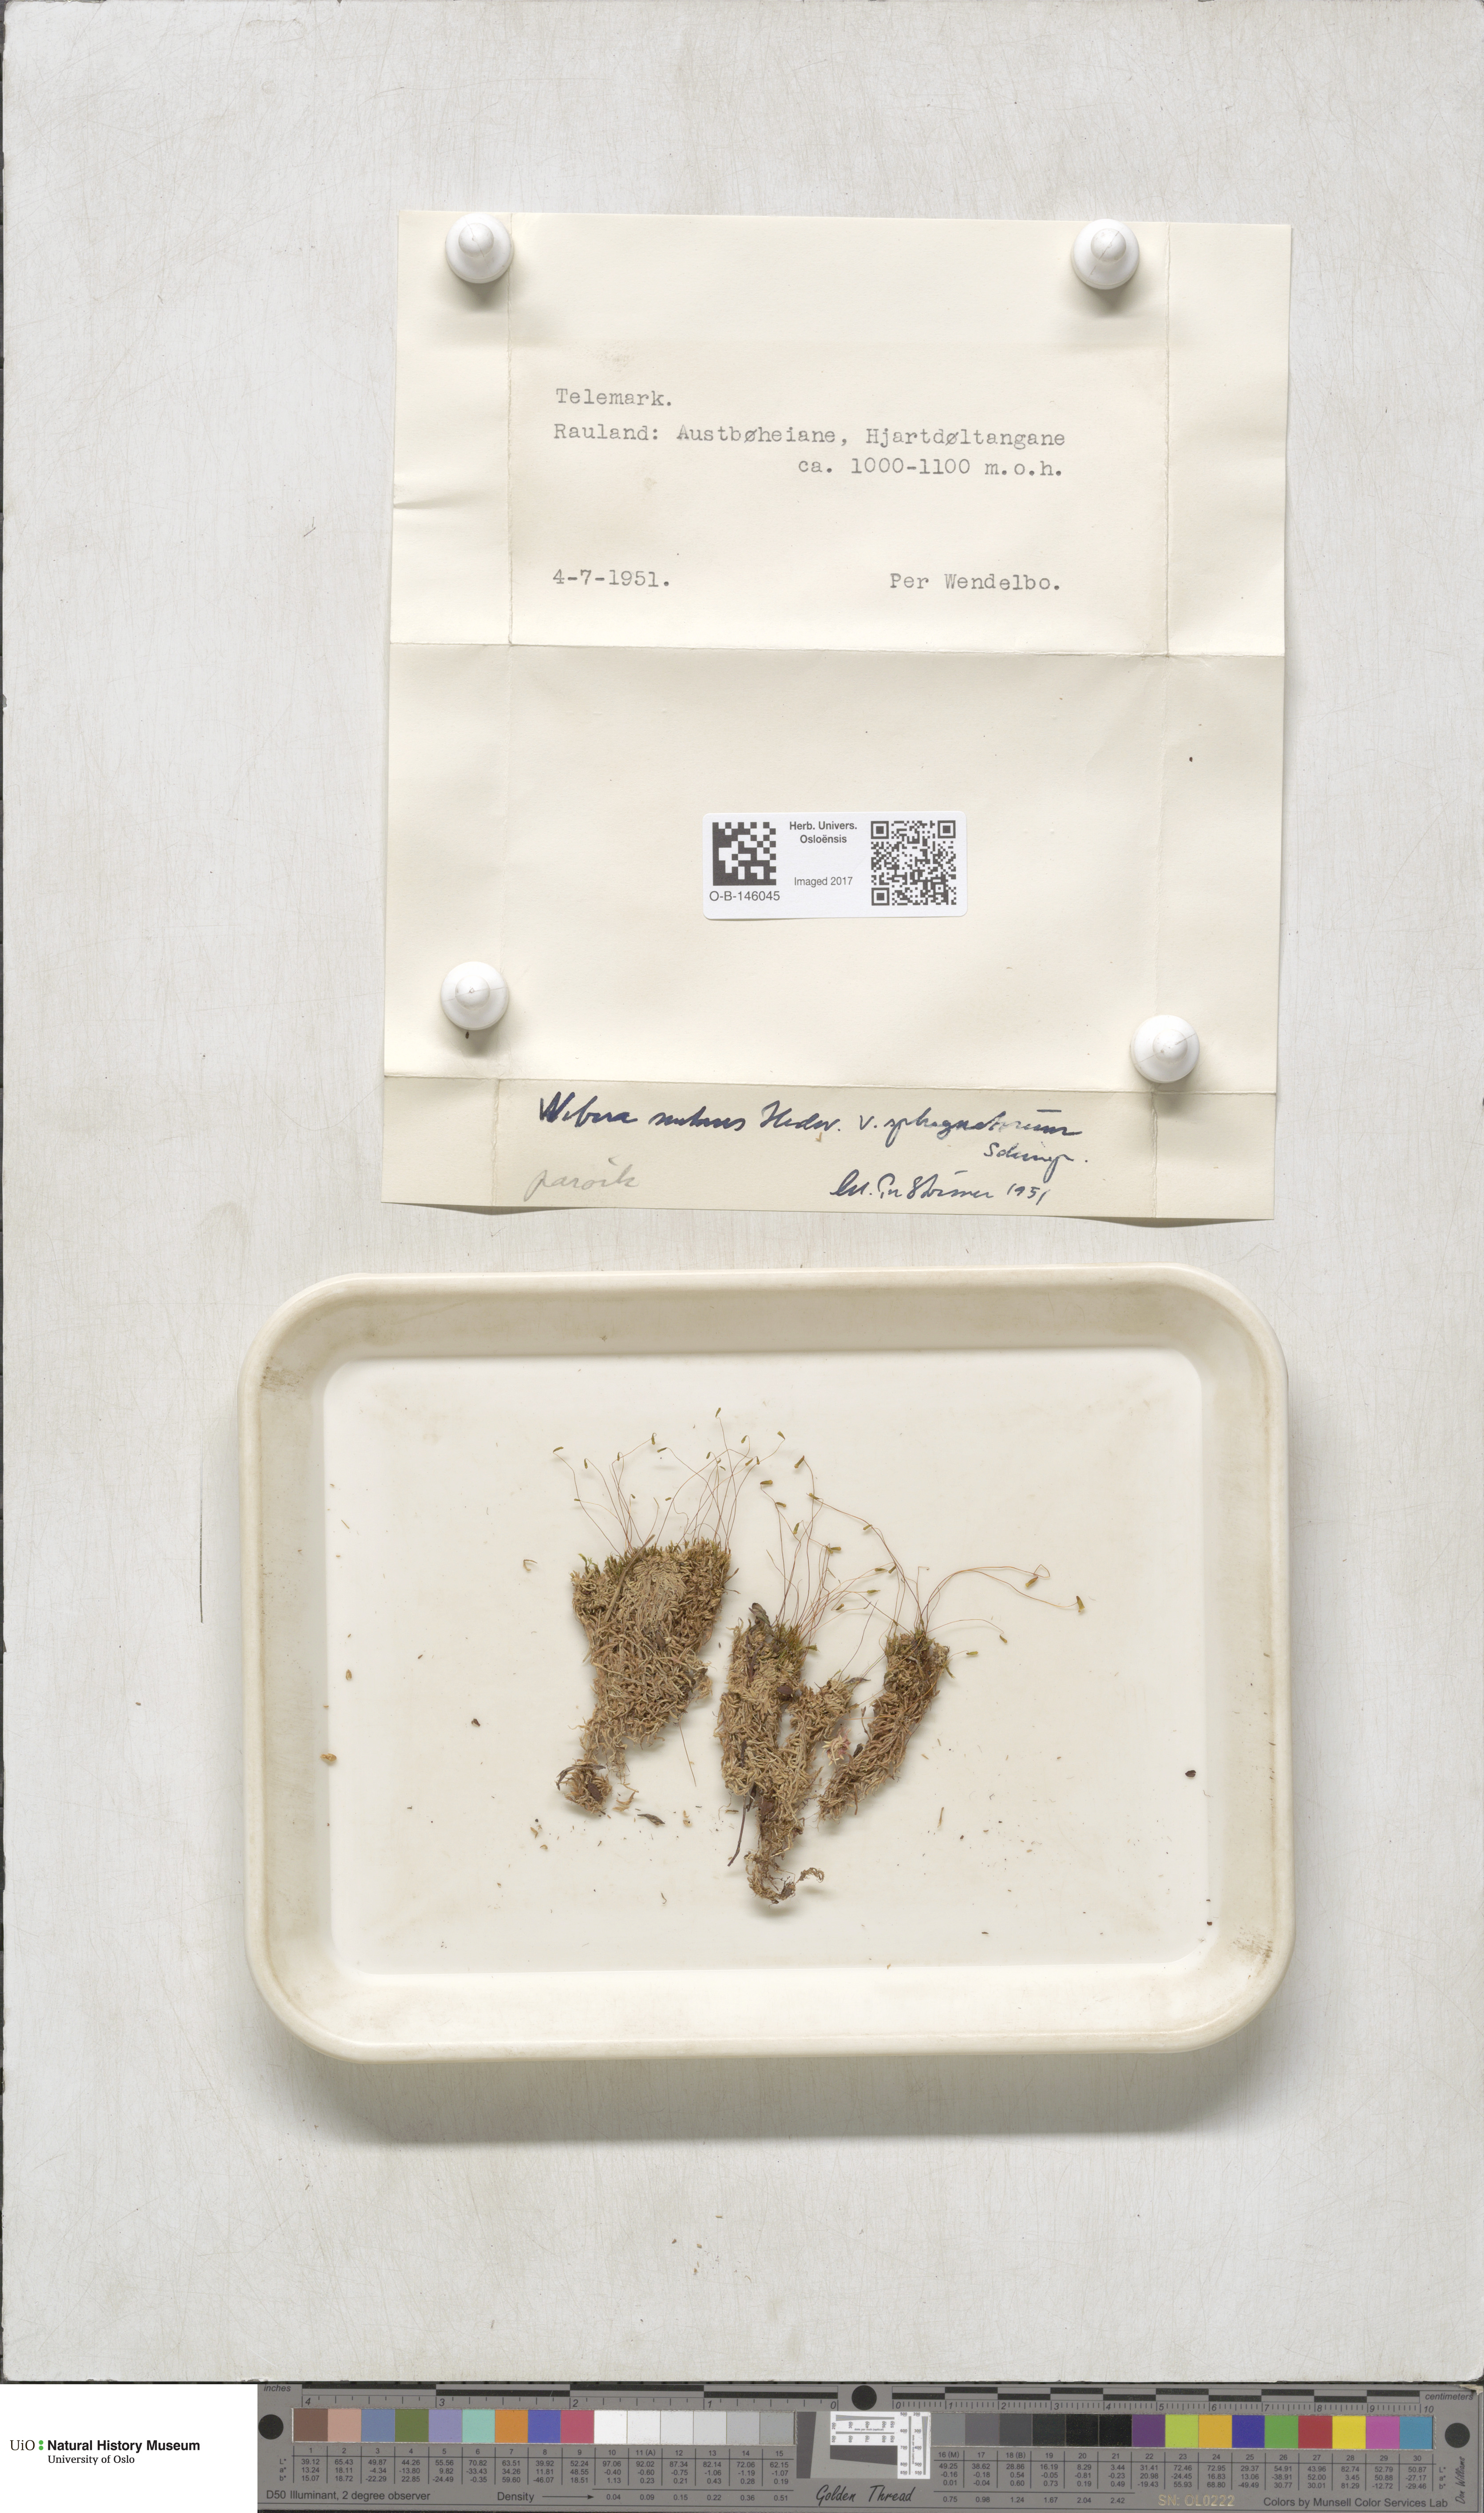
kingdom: Plantae
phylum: Bryophyta
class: Bryopsida
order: Bryales
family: Mniaceae
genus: Pohlia
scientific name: Pohlia nutans
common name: Nodding thread-moss
